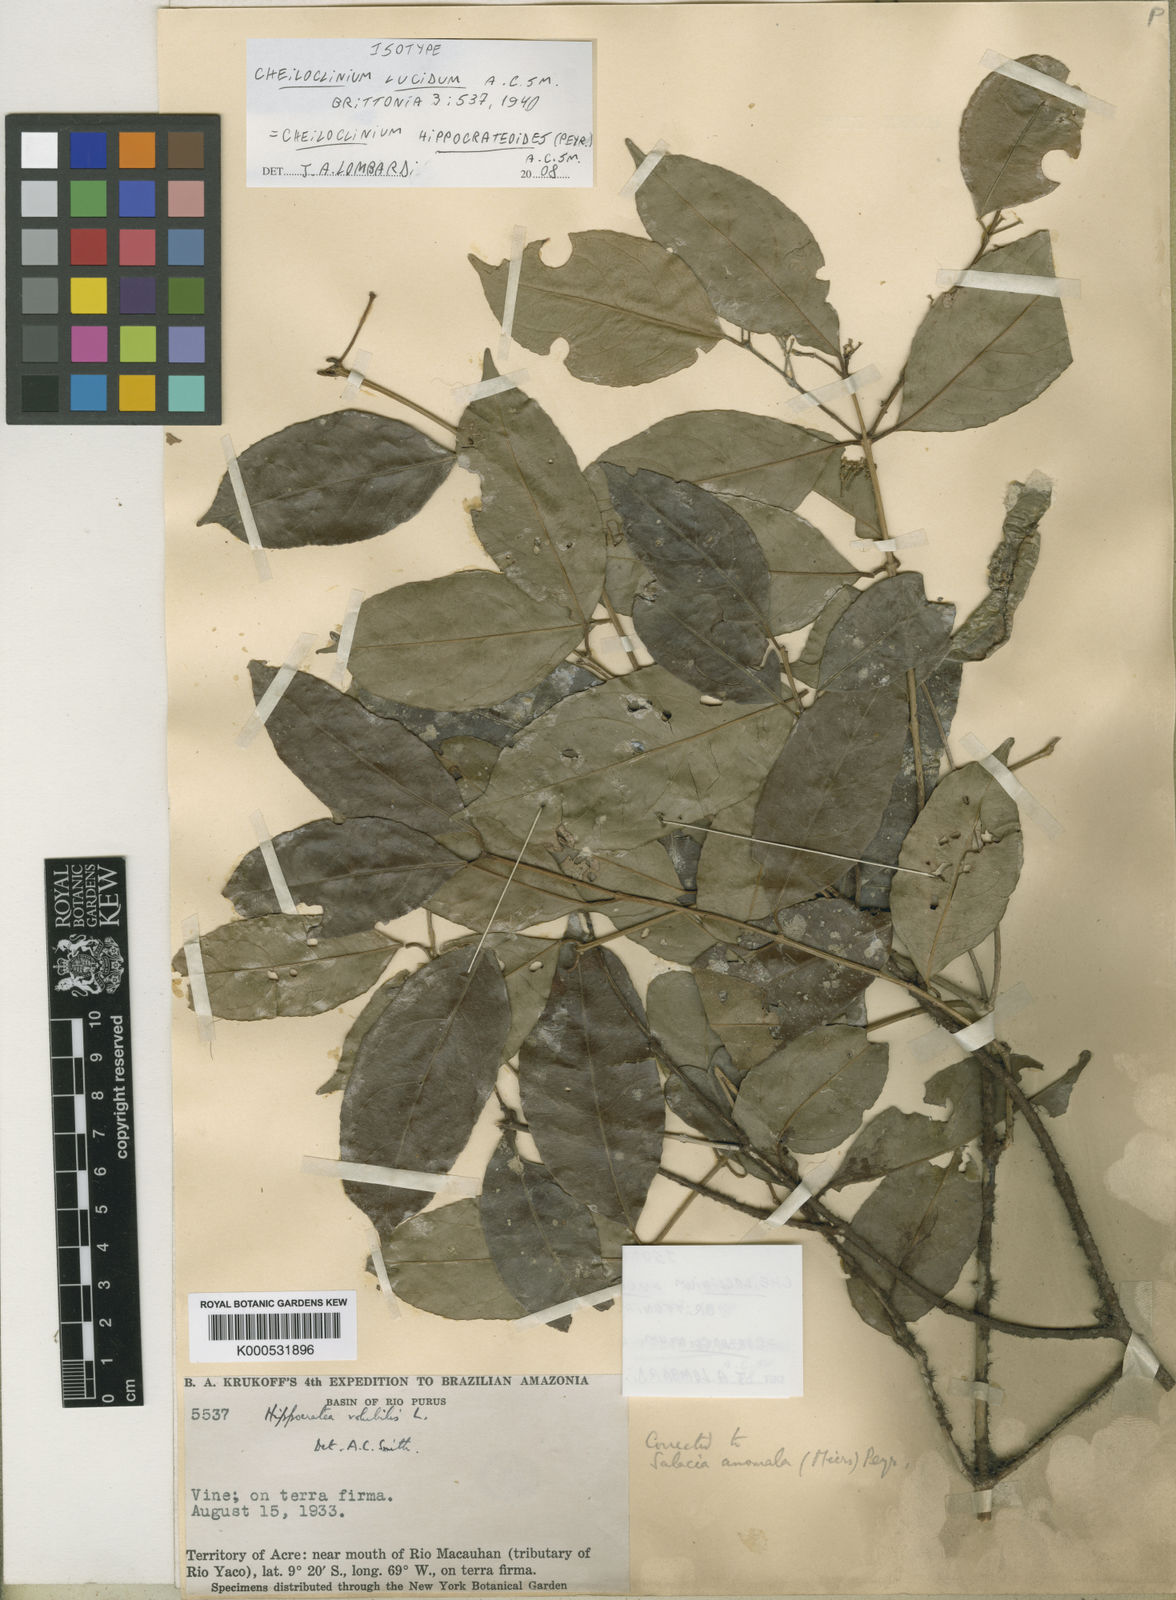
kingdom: Plantae
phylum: Tracheophyta
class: Magnoliopsida
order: Celastrales
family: Celastraceae
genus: Cheiloclinium
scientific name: Cheiloclinium hippocrateoides
